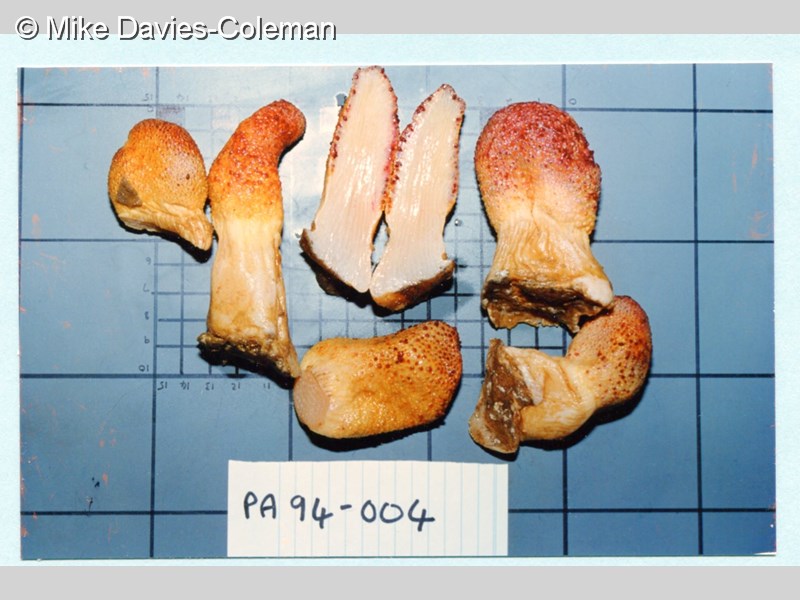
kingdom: Animalia
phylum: Cnidaria
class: Anthozoa
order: Malacalcyonacea
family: Acrophytidae
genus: Pieterfaurea
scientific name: Pieterfaurea unilobata
